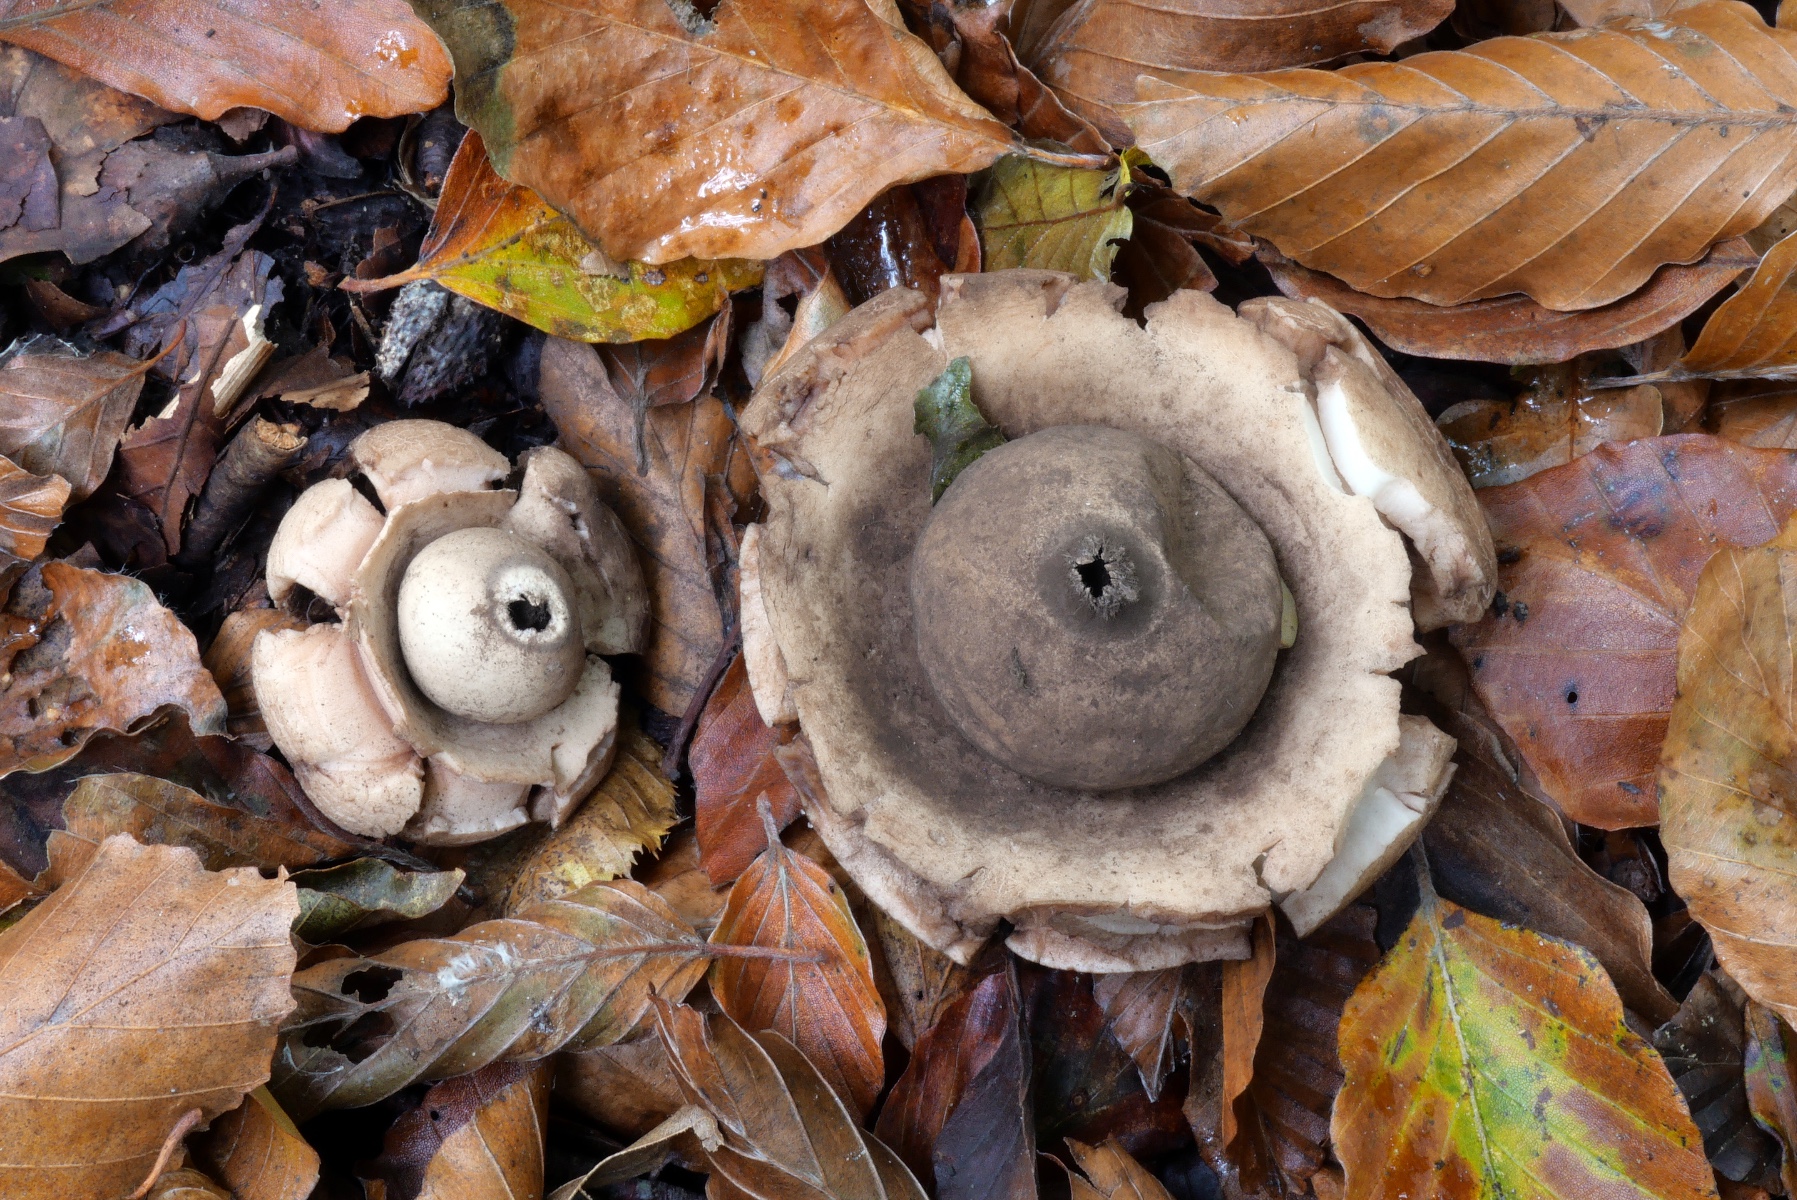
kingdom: Fungi
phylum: Basidiomycota
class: Agaricomycetes
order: Geastrales
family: Geastraceae
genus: Geastrum
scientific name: Geastrum michelianum
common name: kødet stjernebold
